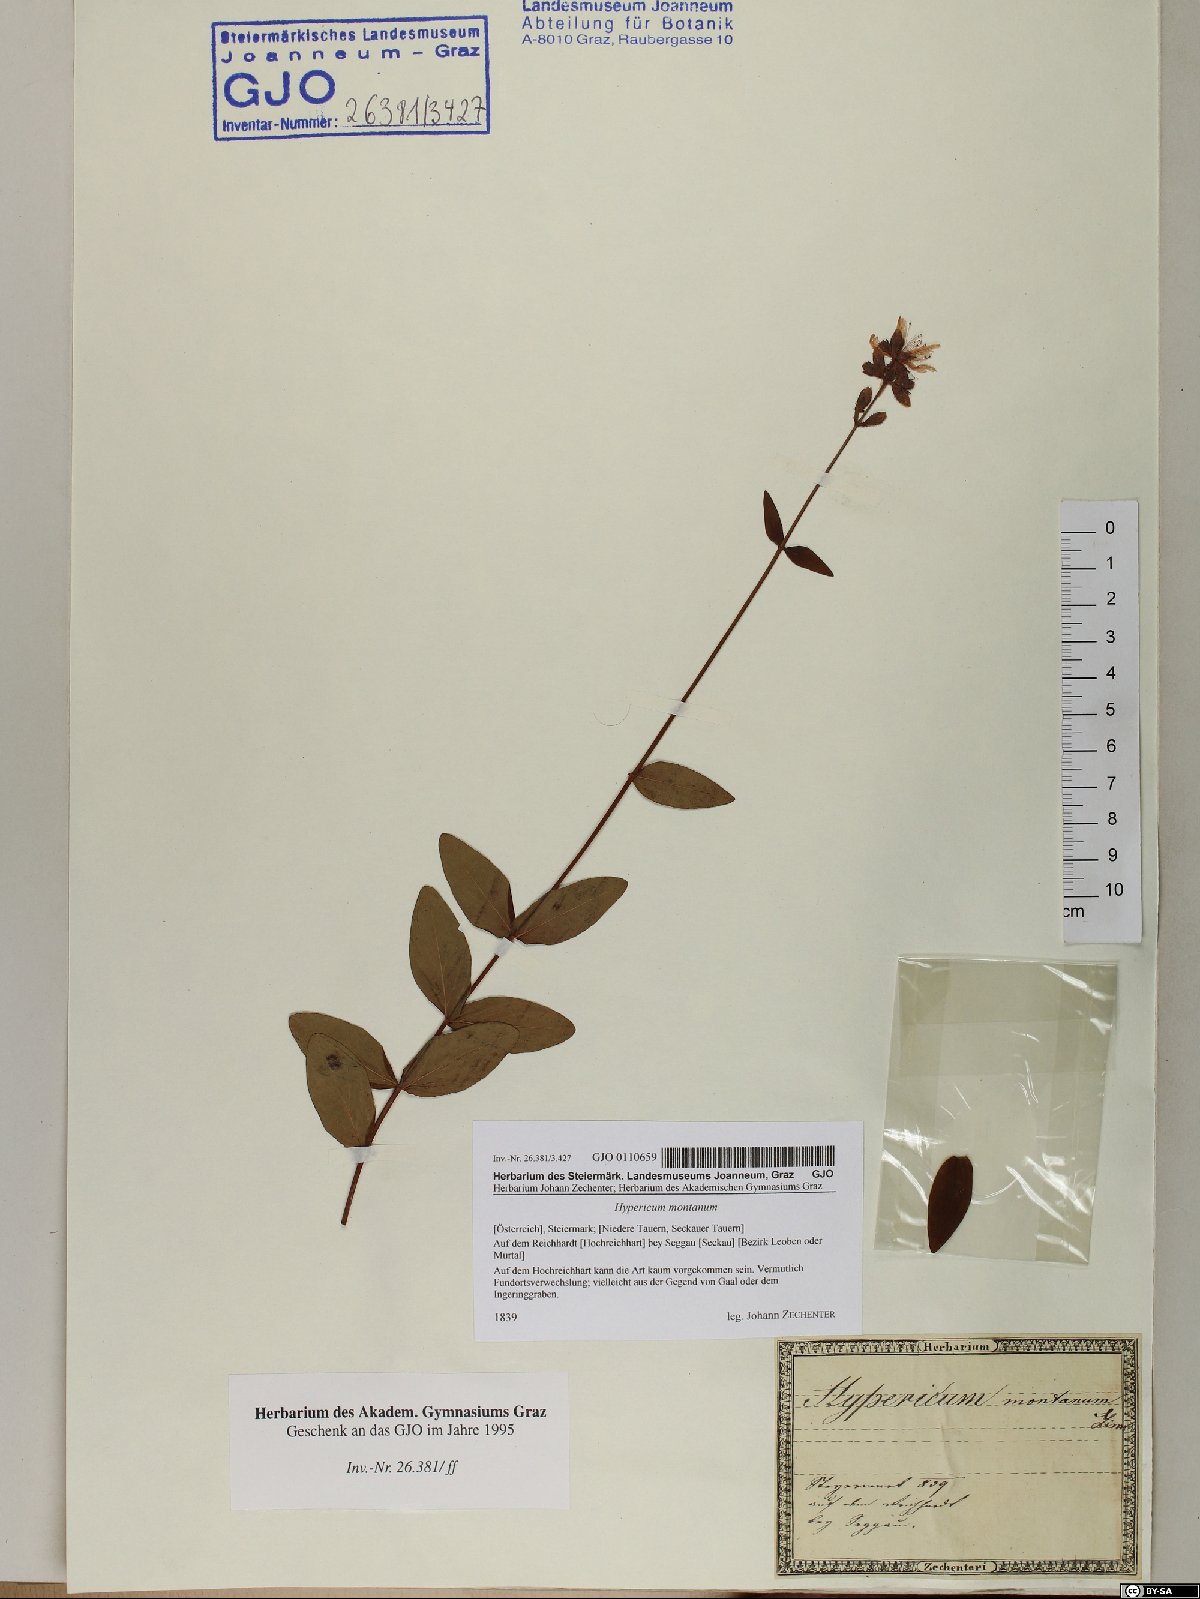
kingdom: Plantae
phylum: Tracheophyta
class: Magnoliopsida
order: Malpighiales
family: Hypericaceae
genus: Hypericum
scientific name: Hypericum montanum
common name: Pale st. john's-wort
